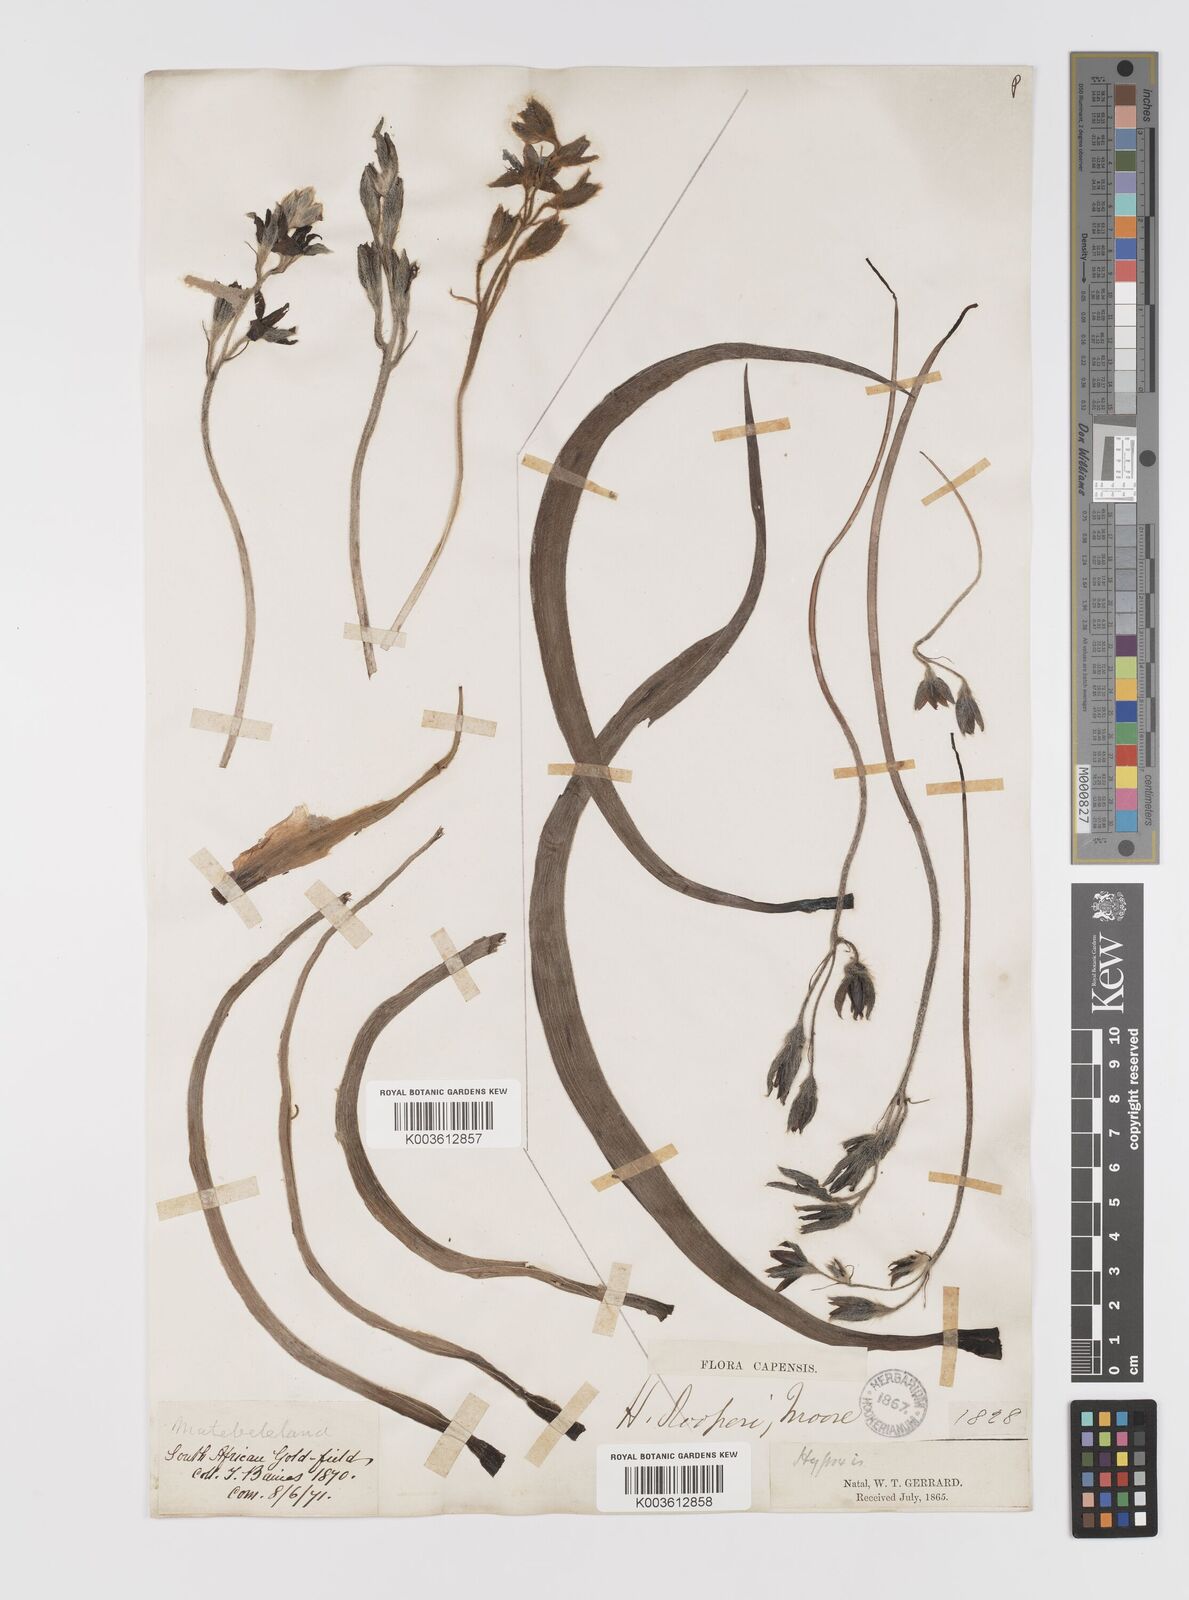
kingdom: Plantae
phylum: Tracheophyta
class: Liliopsida
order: Asparagales
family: Hypoxidaceae
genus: Hypoxis
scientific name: Hypoxis hemerocallidea
